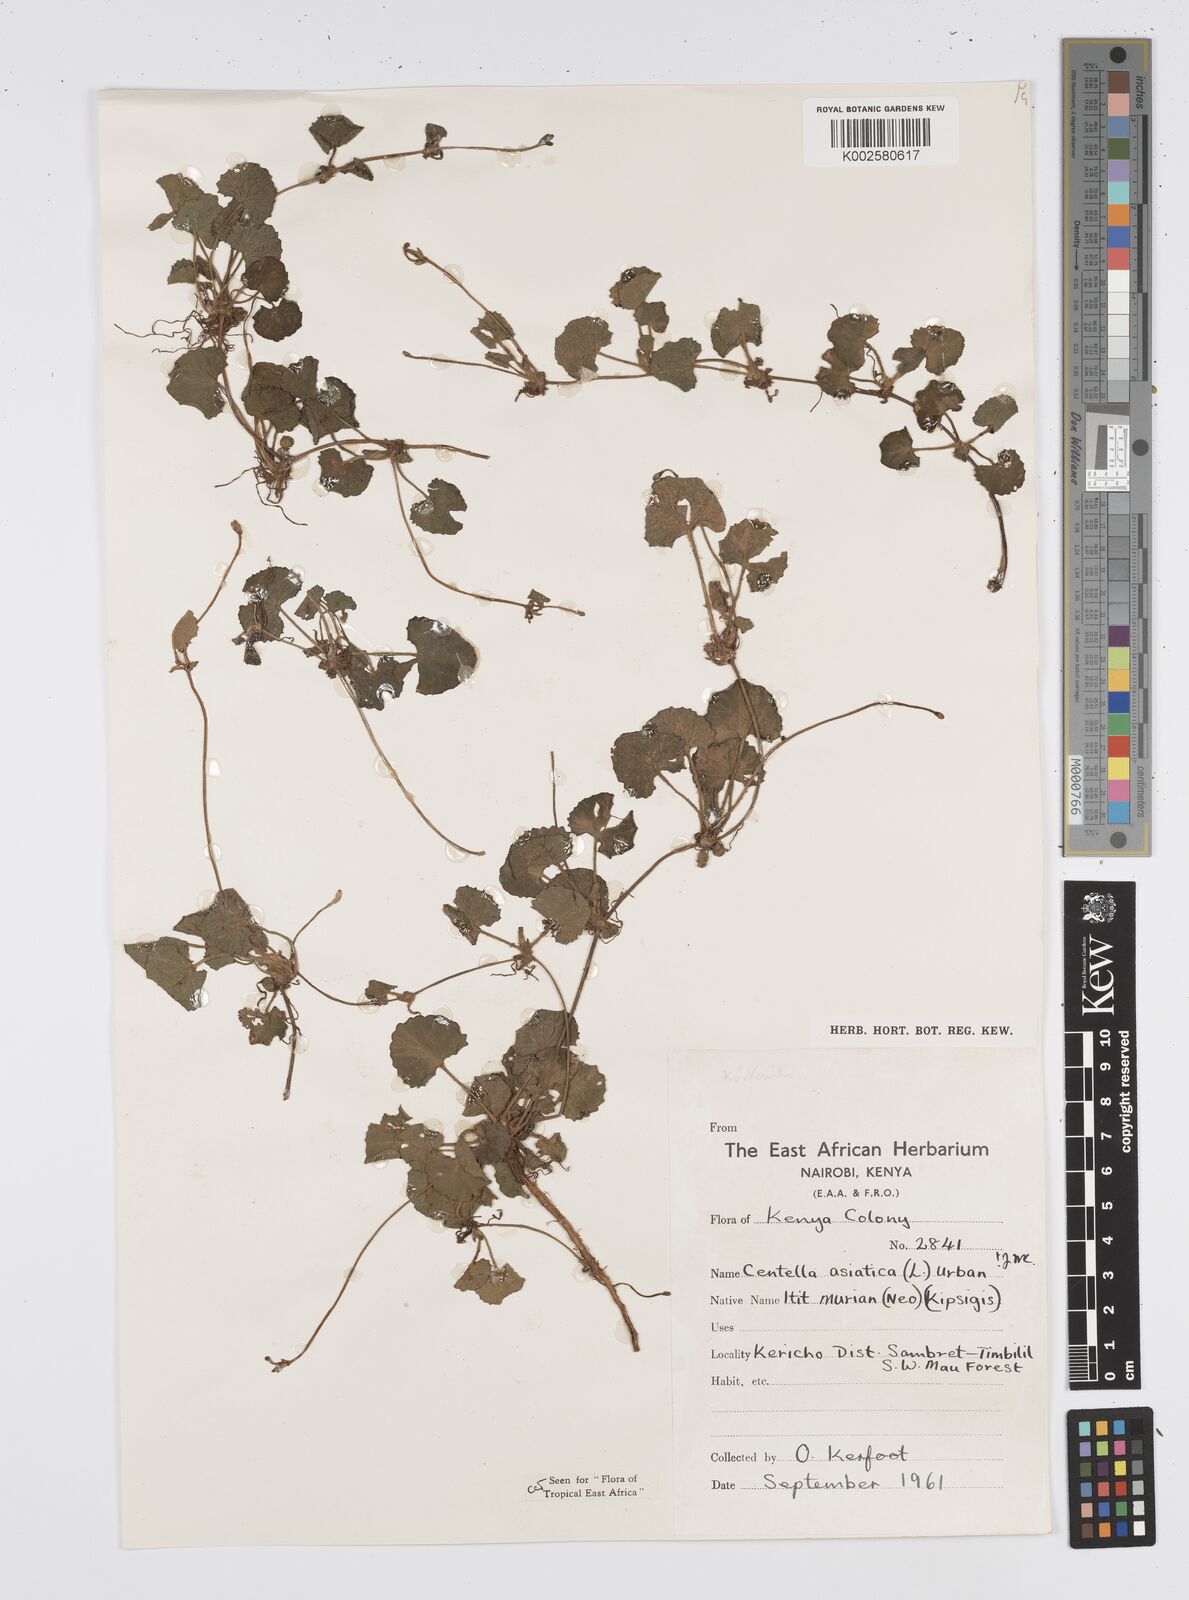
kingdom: Plantae
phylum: Tracheophyta
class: Magnoliopsida
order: Apiales
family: Apiaceae
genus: Centella
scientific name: Centella asiatica
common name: Spadeleaf
